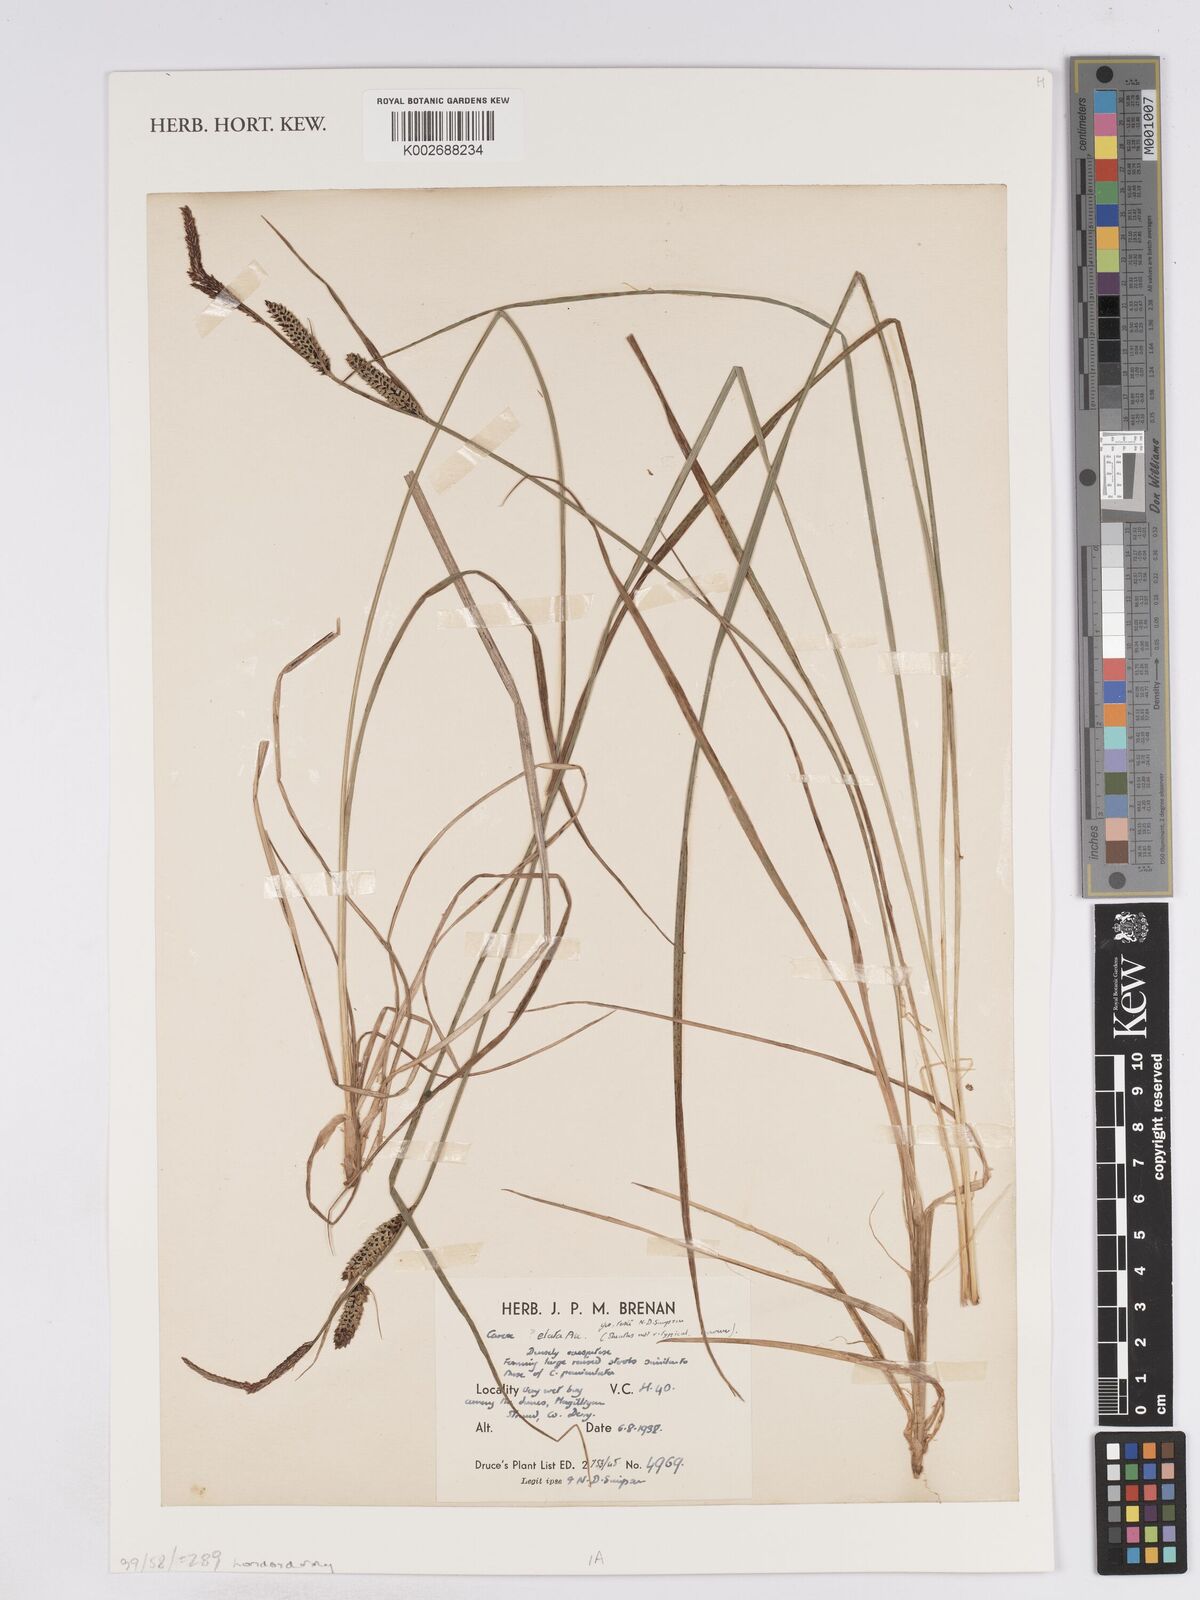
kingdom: Plantae
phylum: Tracheophyta
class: Liliopsida
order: Poales
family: Cyperaceae
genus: Carex
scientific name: Carex elata
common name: Tufted sedge
